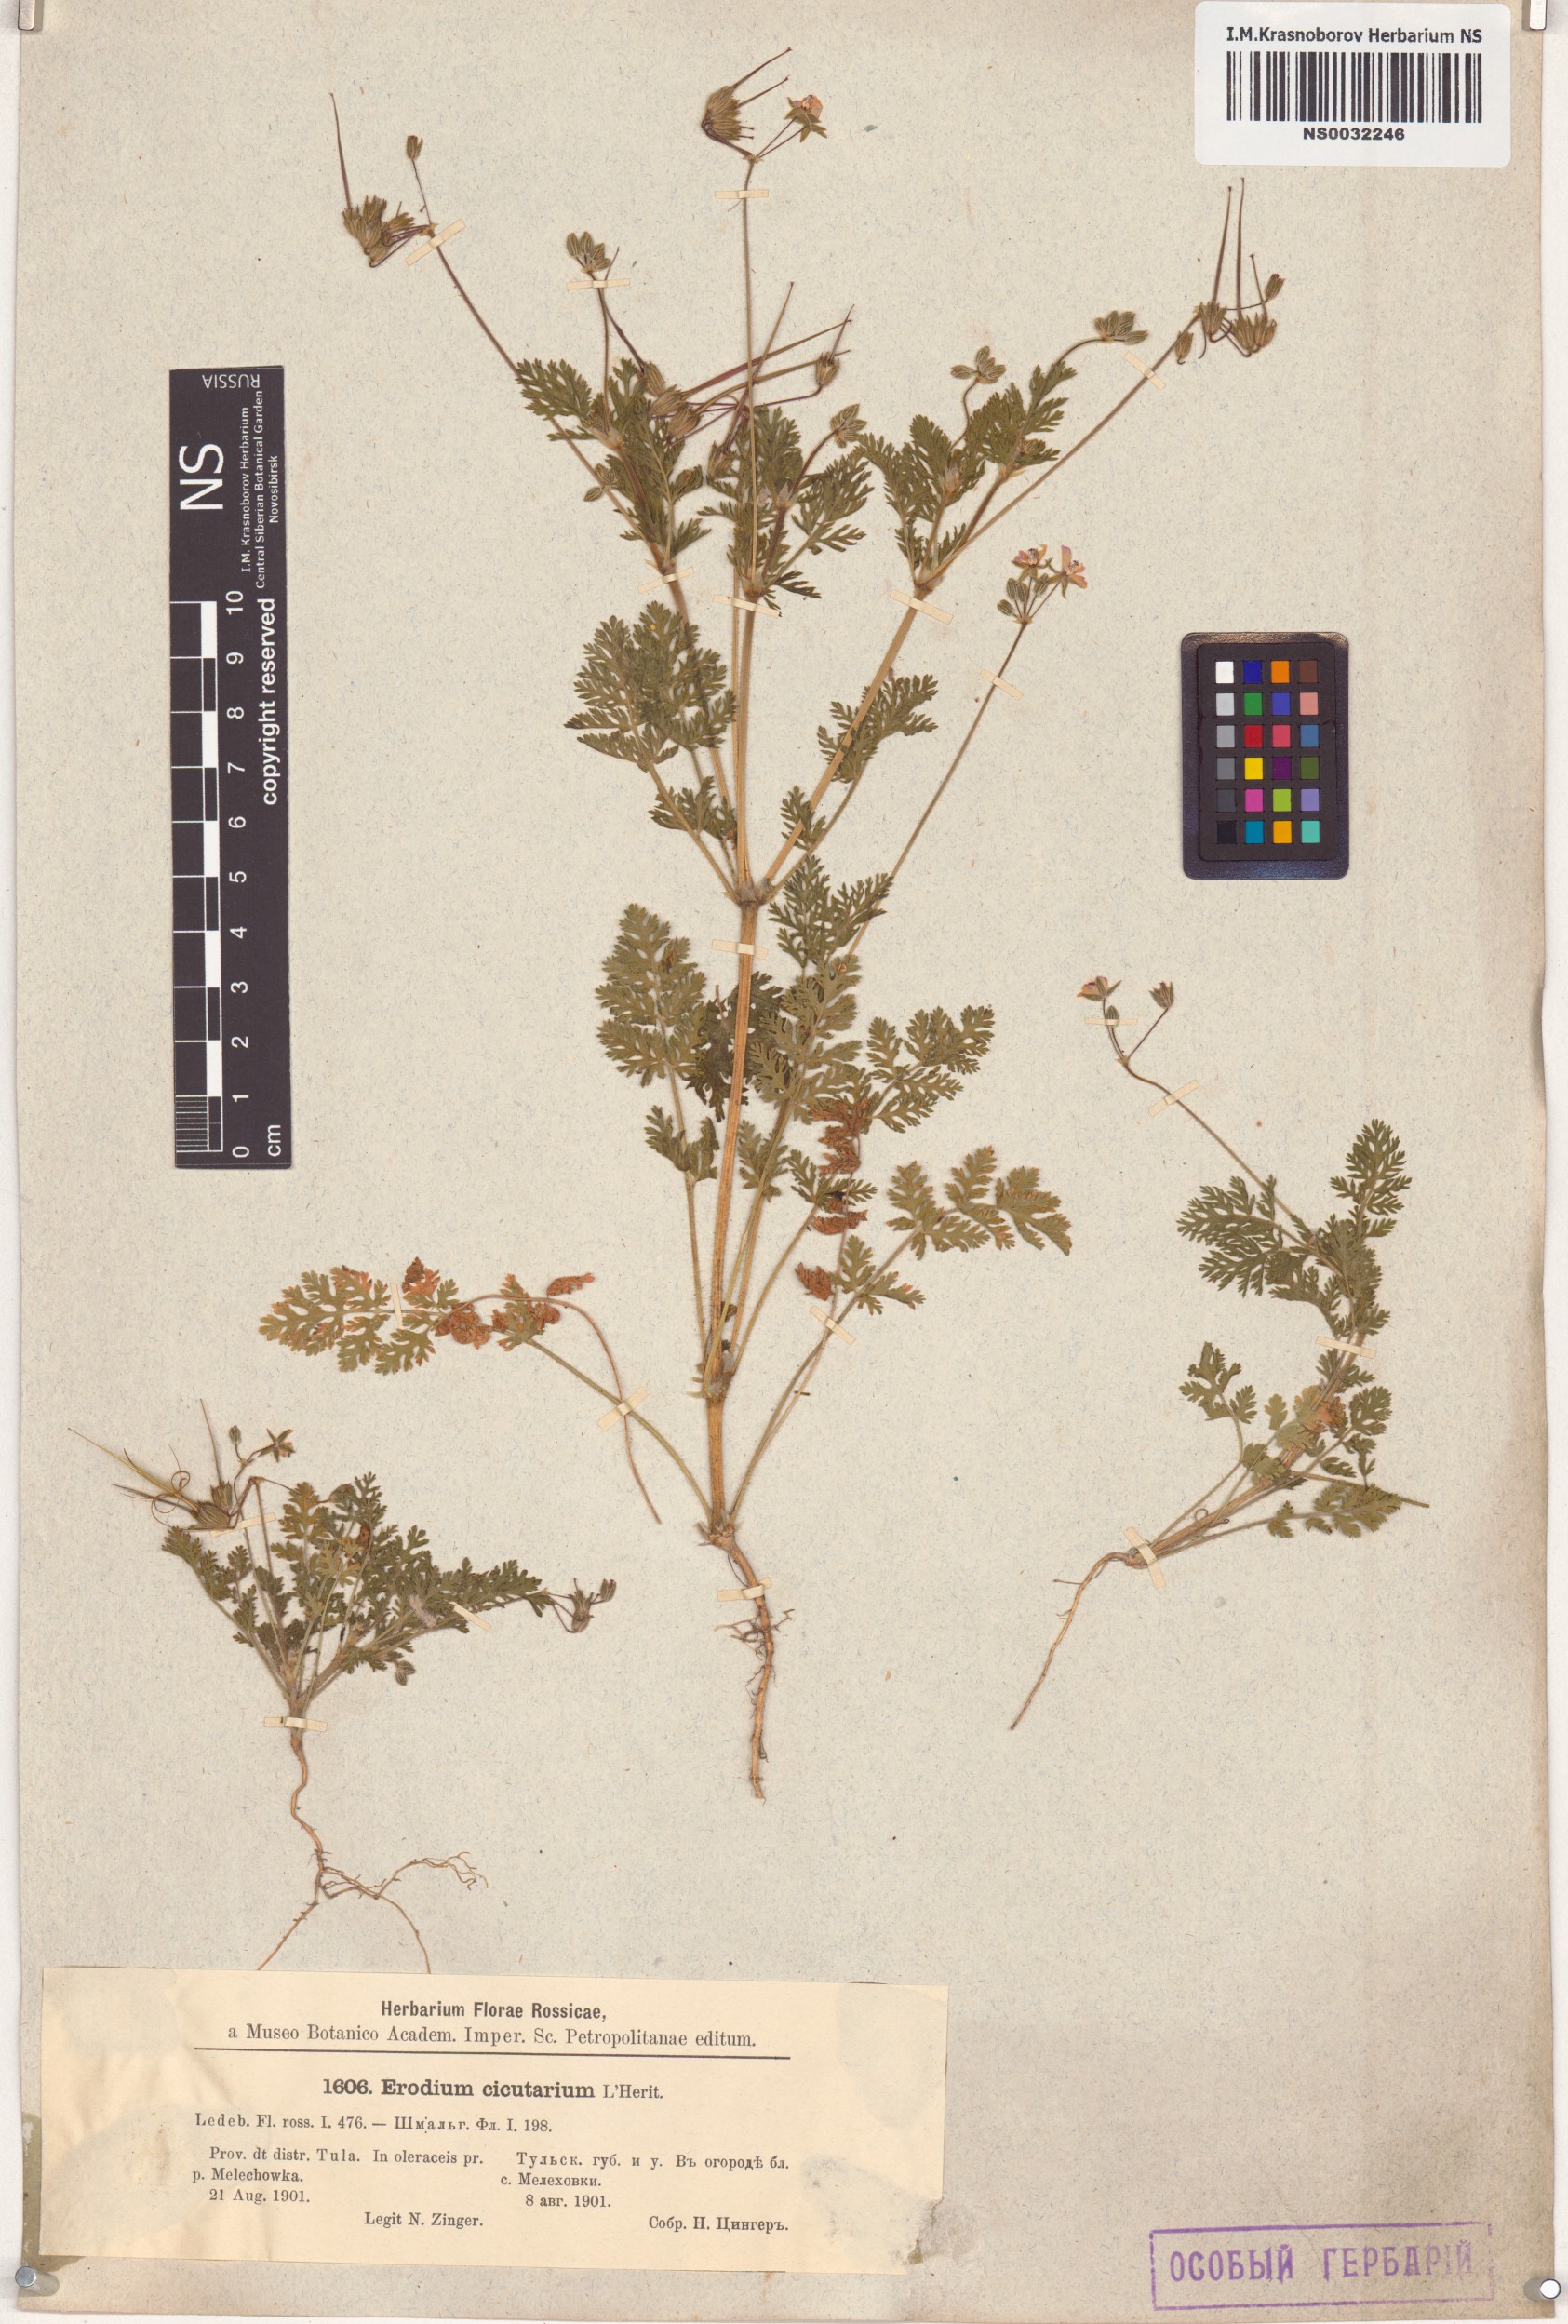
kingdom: Plantae
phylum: Tracheophyta
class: Magnoliopsida
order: Geraniales
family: Geraniaceae
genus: Erodium
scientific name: Erodium cicutarium
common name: Common stork's-bill
